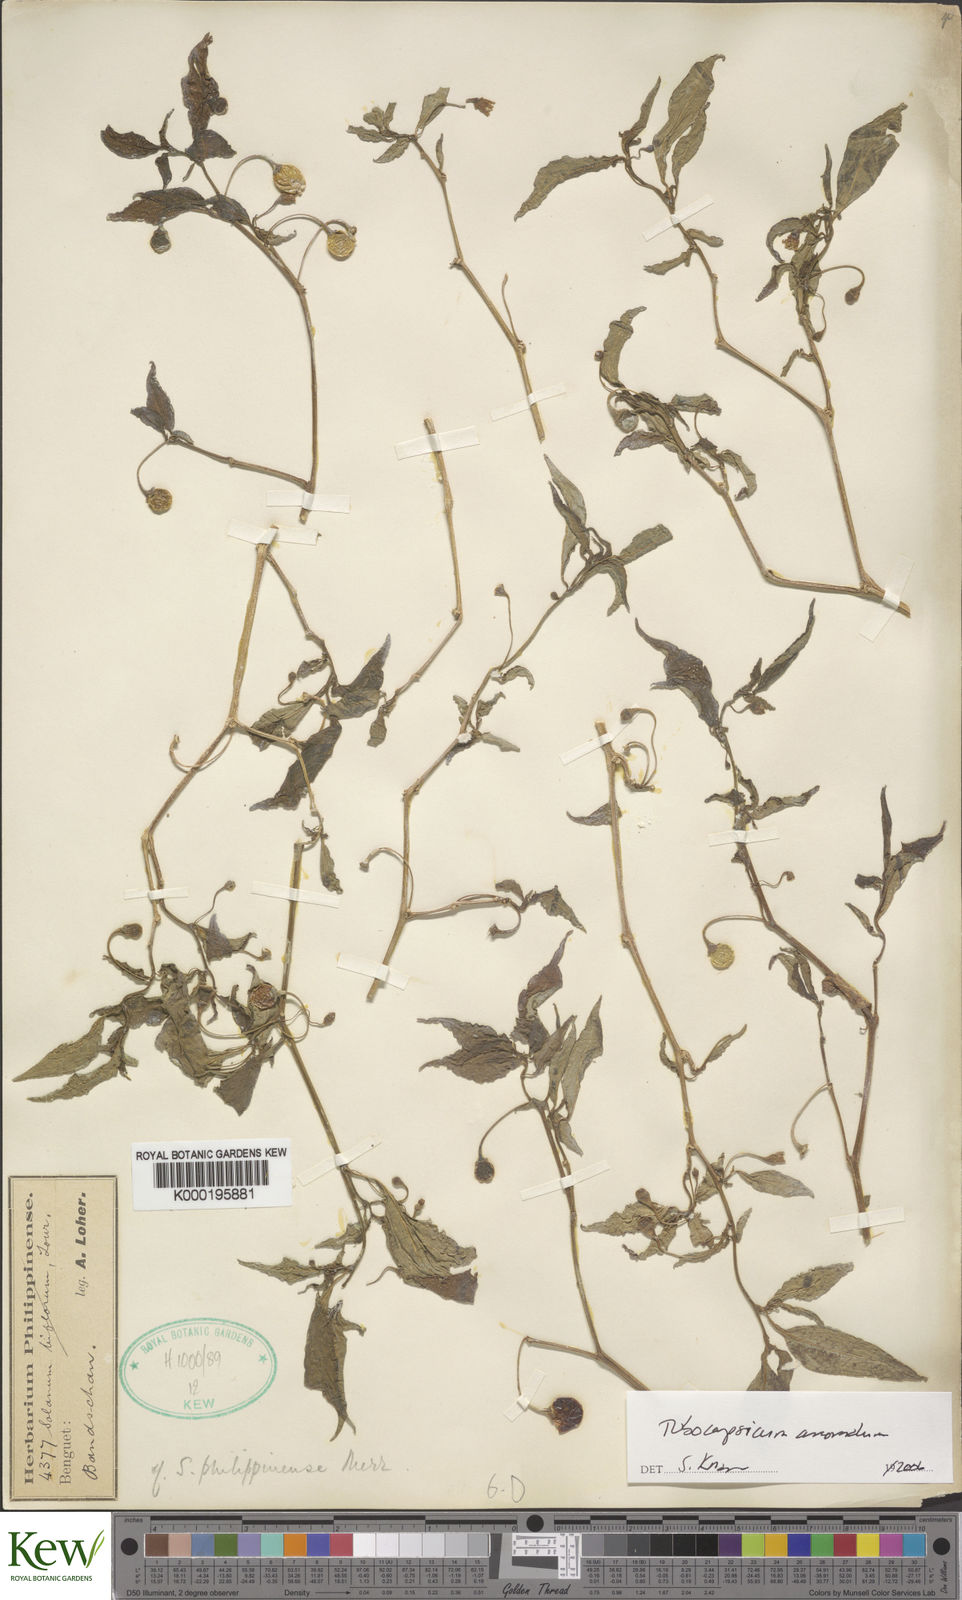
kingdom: Plantae
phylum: Tracheophyta
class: Magnoliopsida
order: Solanales
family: Solanaceae
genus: Tubocapsicum
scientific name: Tubocapsicum anomalum
